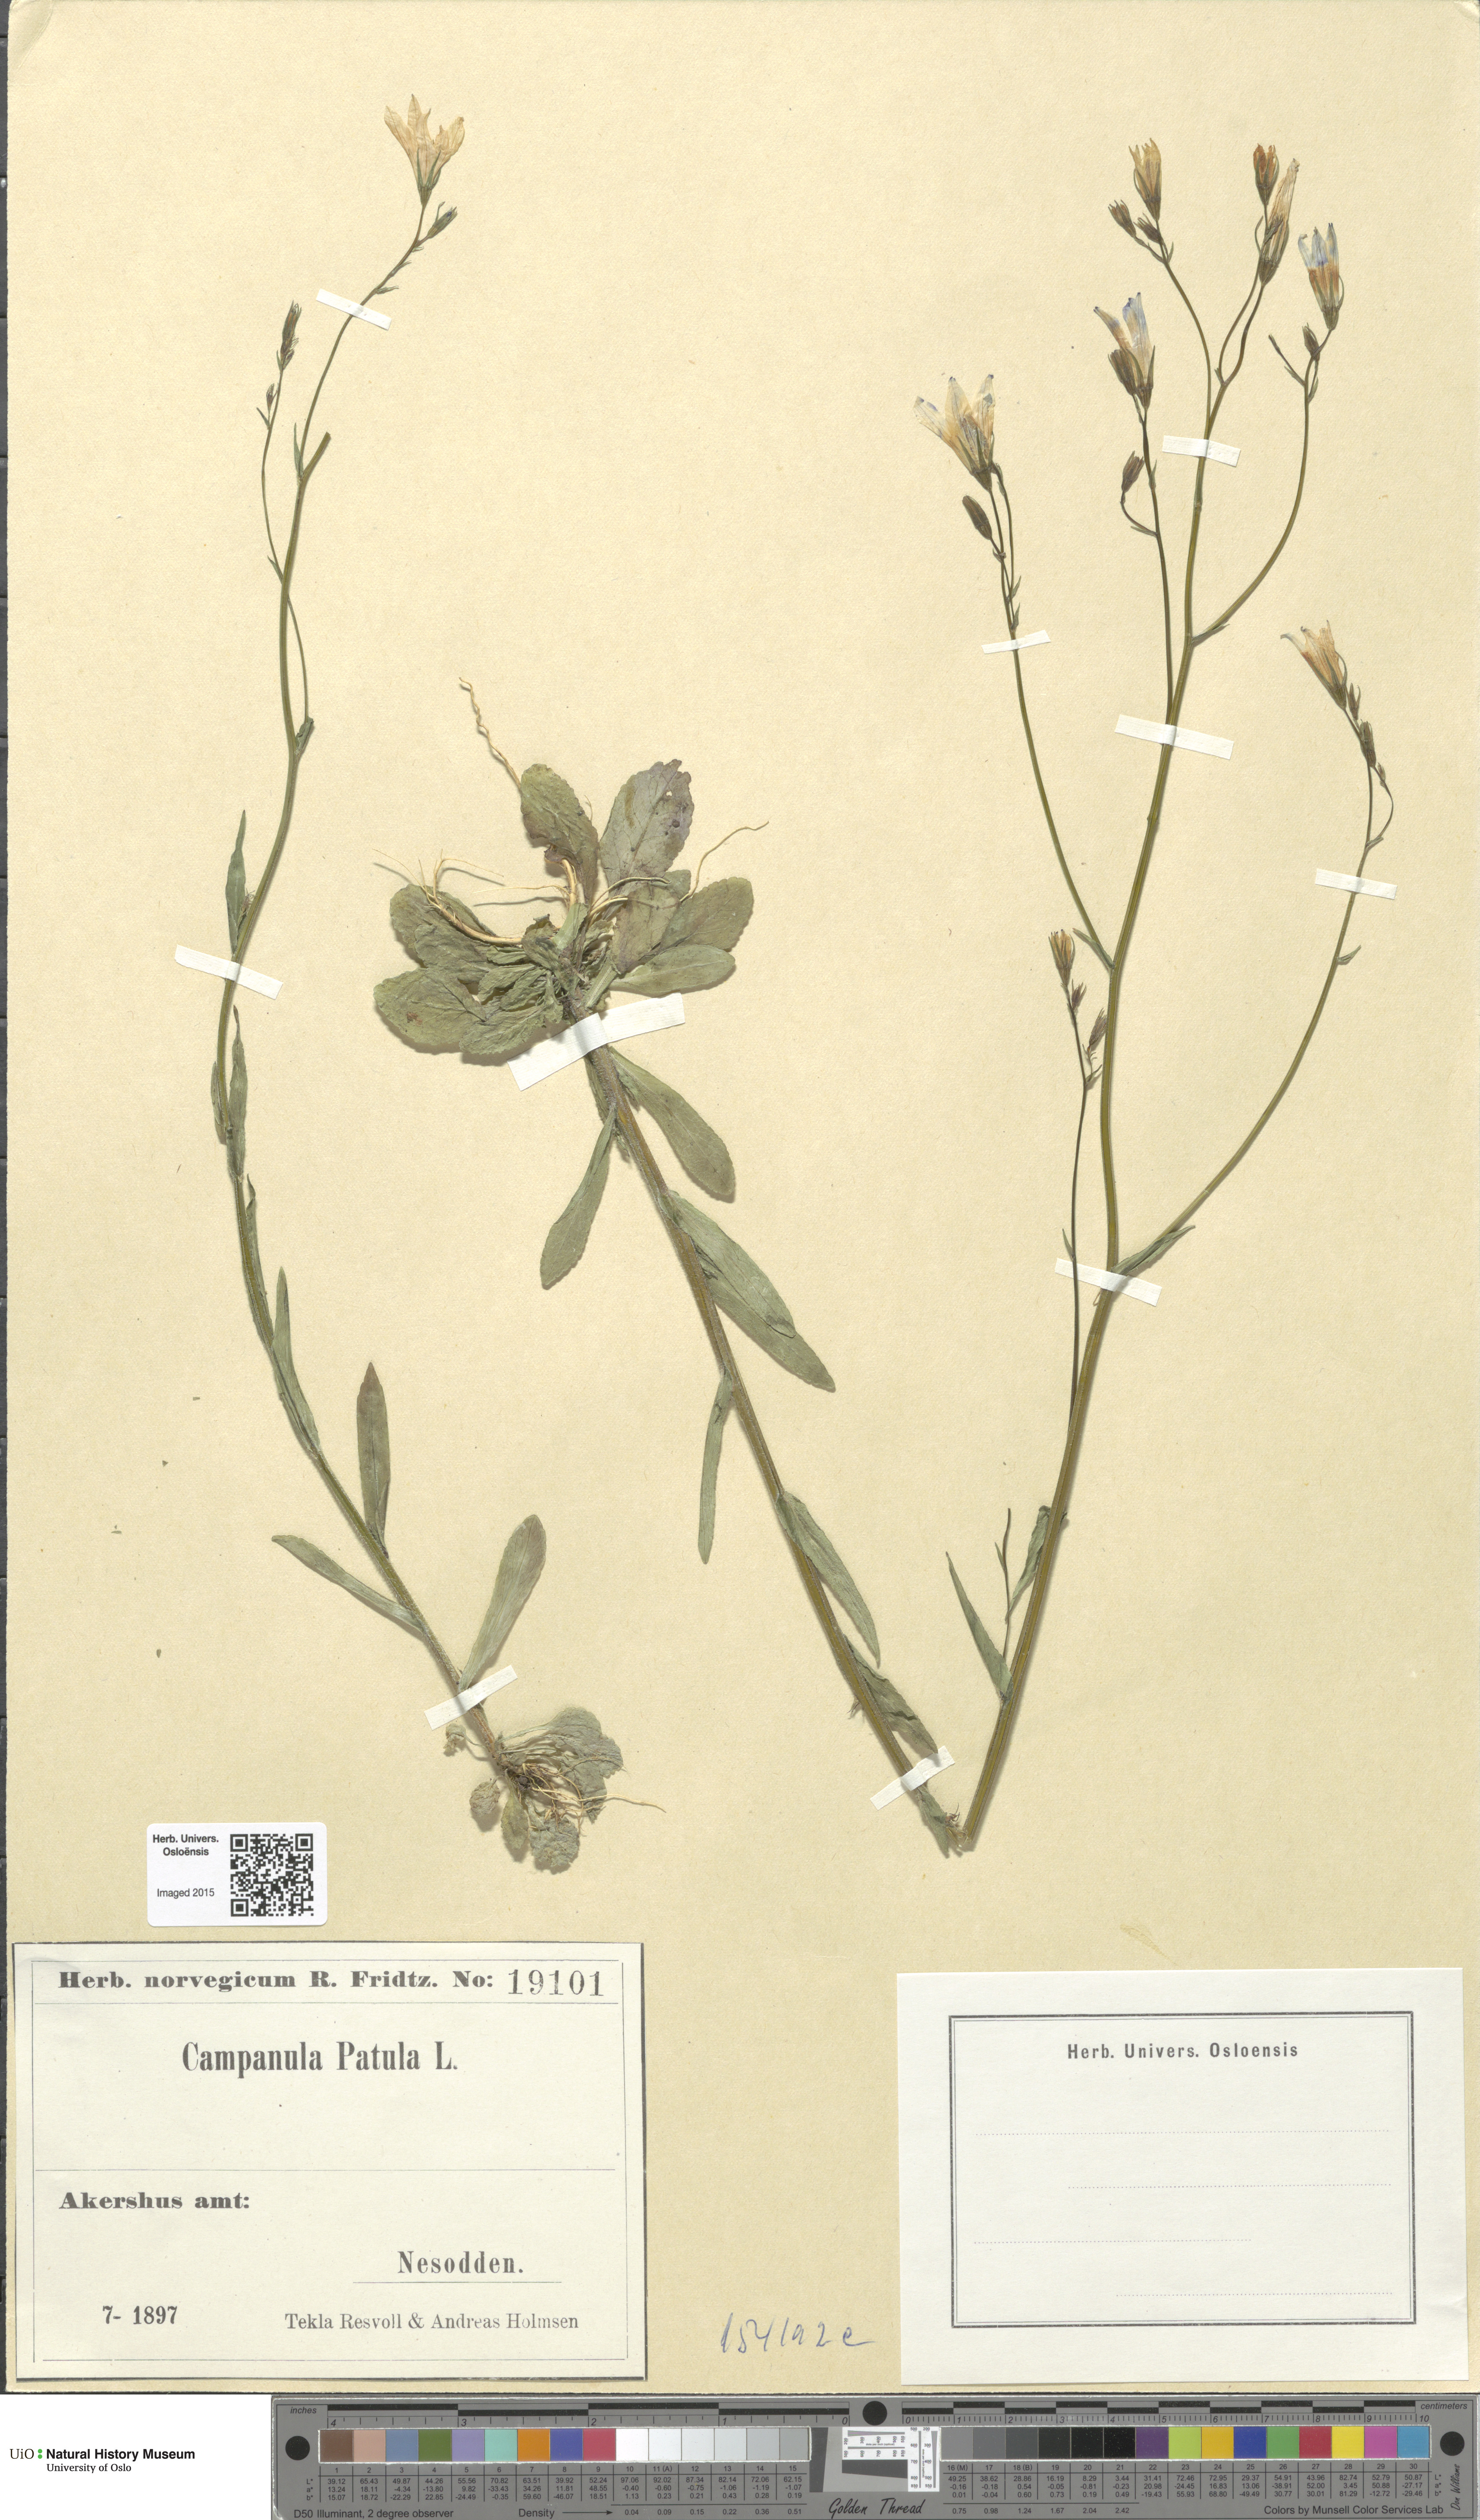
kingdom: Plantae
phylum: Tracheophyta
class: Magnoliopsida
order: Asterales
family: Campanulaceae
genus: Campanula
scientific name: Campanula patula
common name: Spreading bellflower
